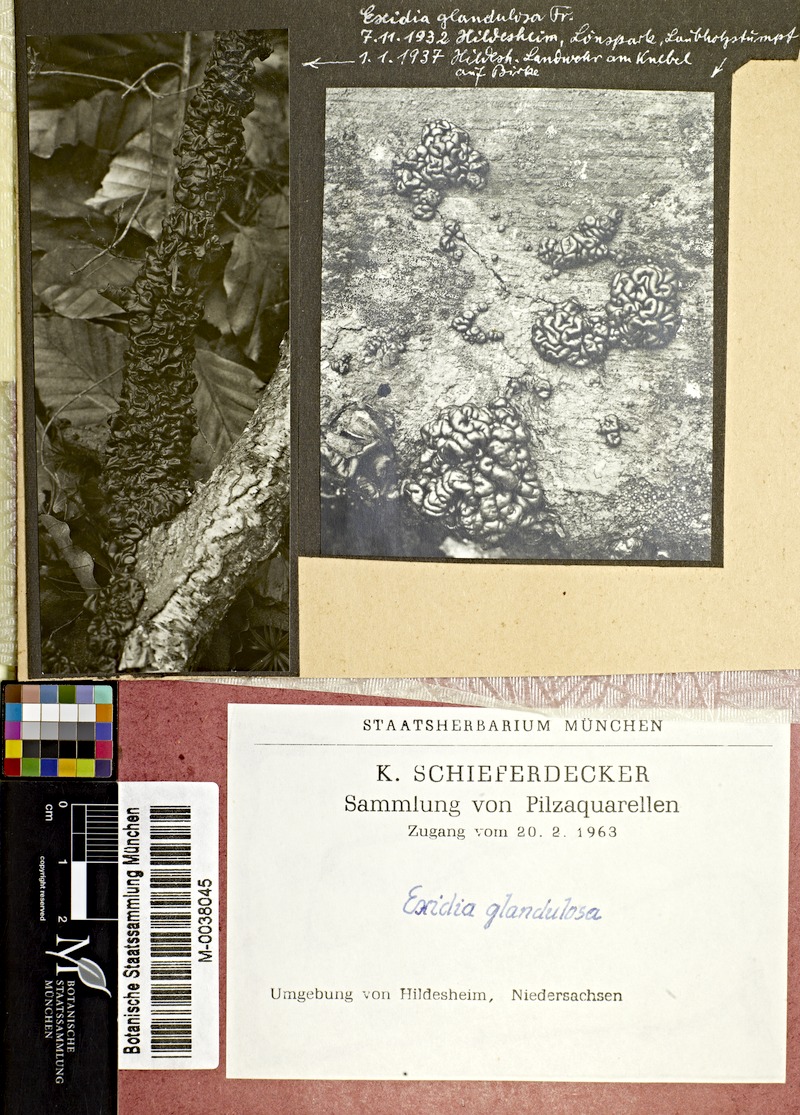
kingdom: Plantae
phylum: Tracheophyta
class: Magnoliopsida
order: Fagales
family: Betulaceae
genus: Betula
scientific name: Betula
